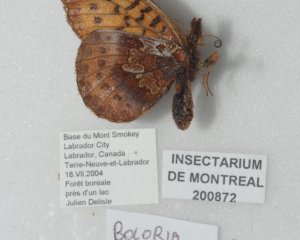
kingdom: Animalia
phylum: Arthropoda
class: Insecta
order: Lepidoptera
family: Nymphalidae
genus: Clossiana
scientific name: Clossiana toddi
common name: Meadow Fritillary
